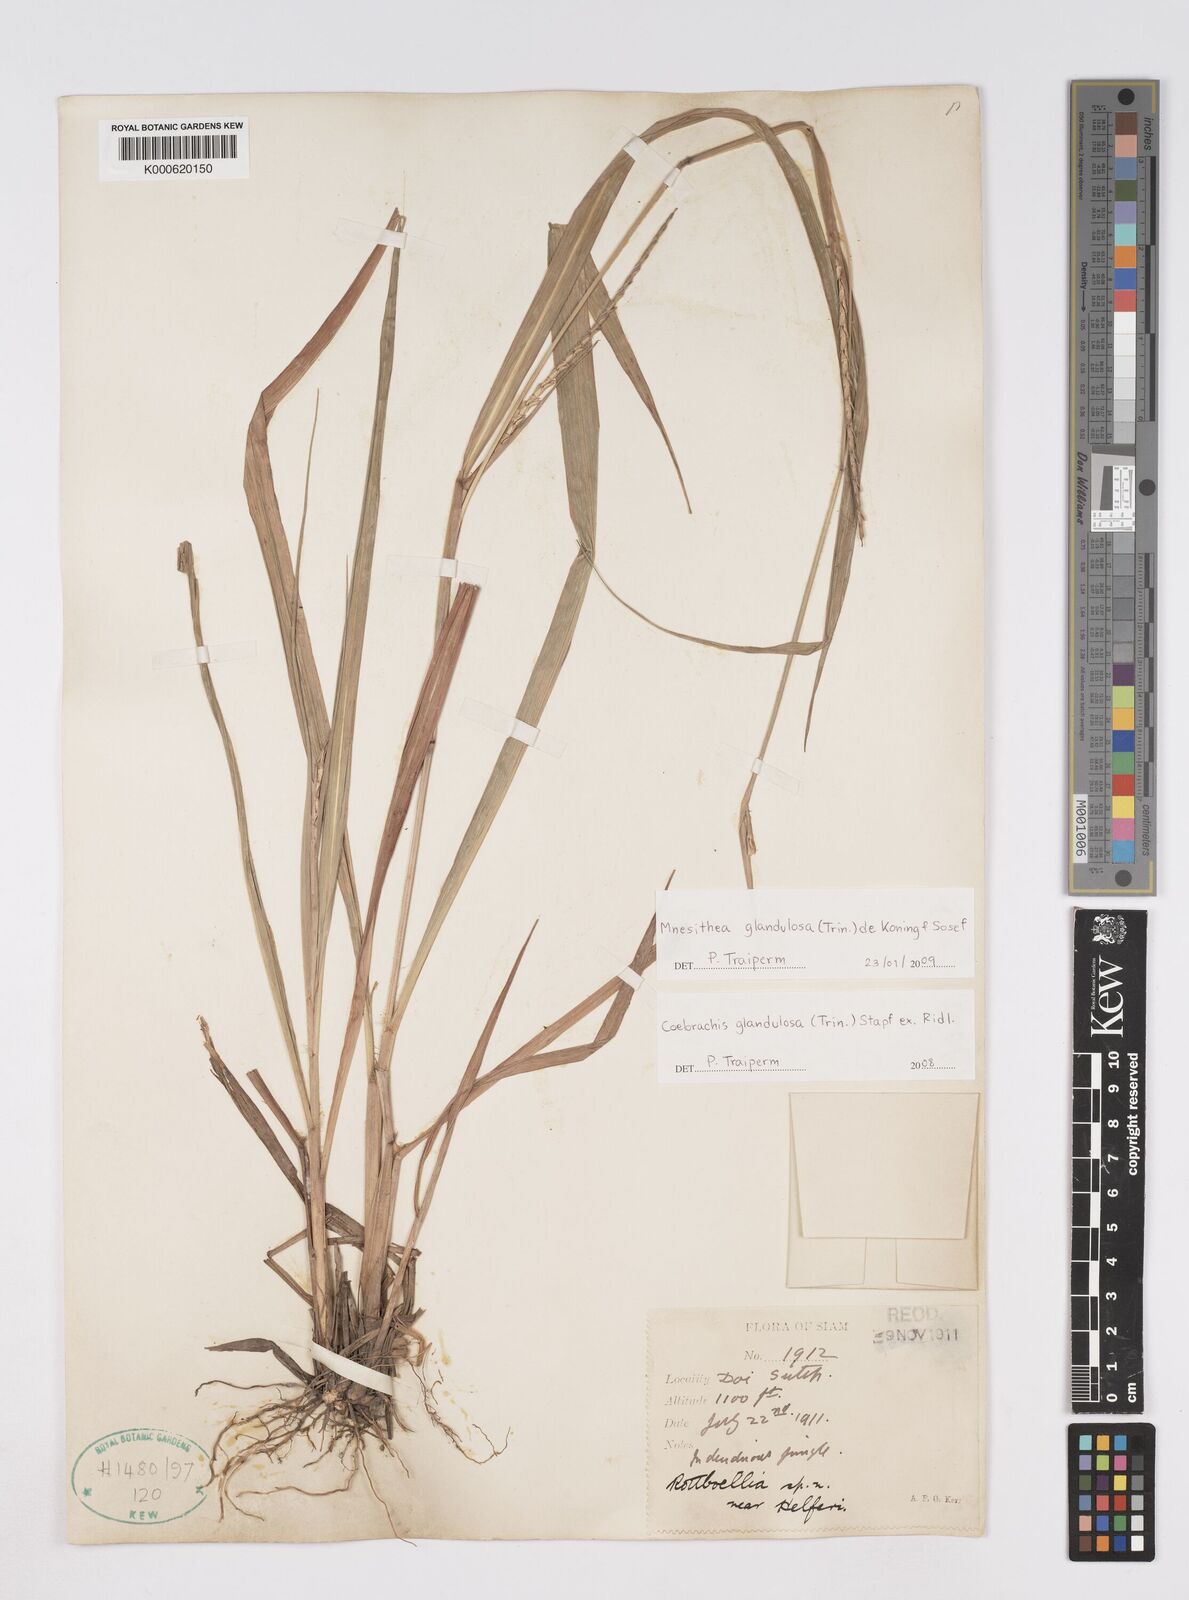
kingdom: Plantae
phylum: Tracheophyta
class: Liliopsida
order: Poales
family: Poaceae
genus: Rottboellia
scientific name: Rottboellia glandulosa
